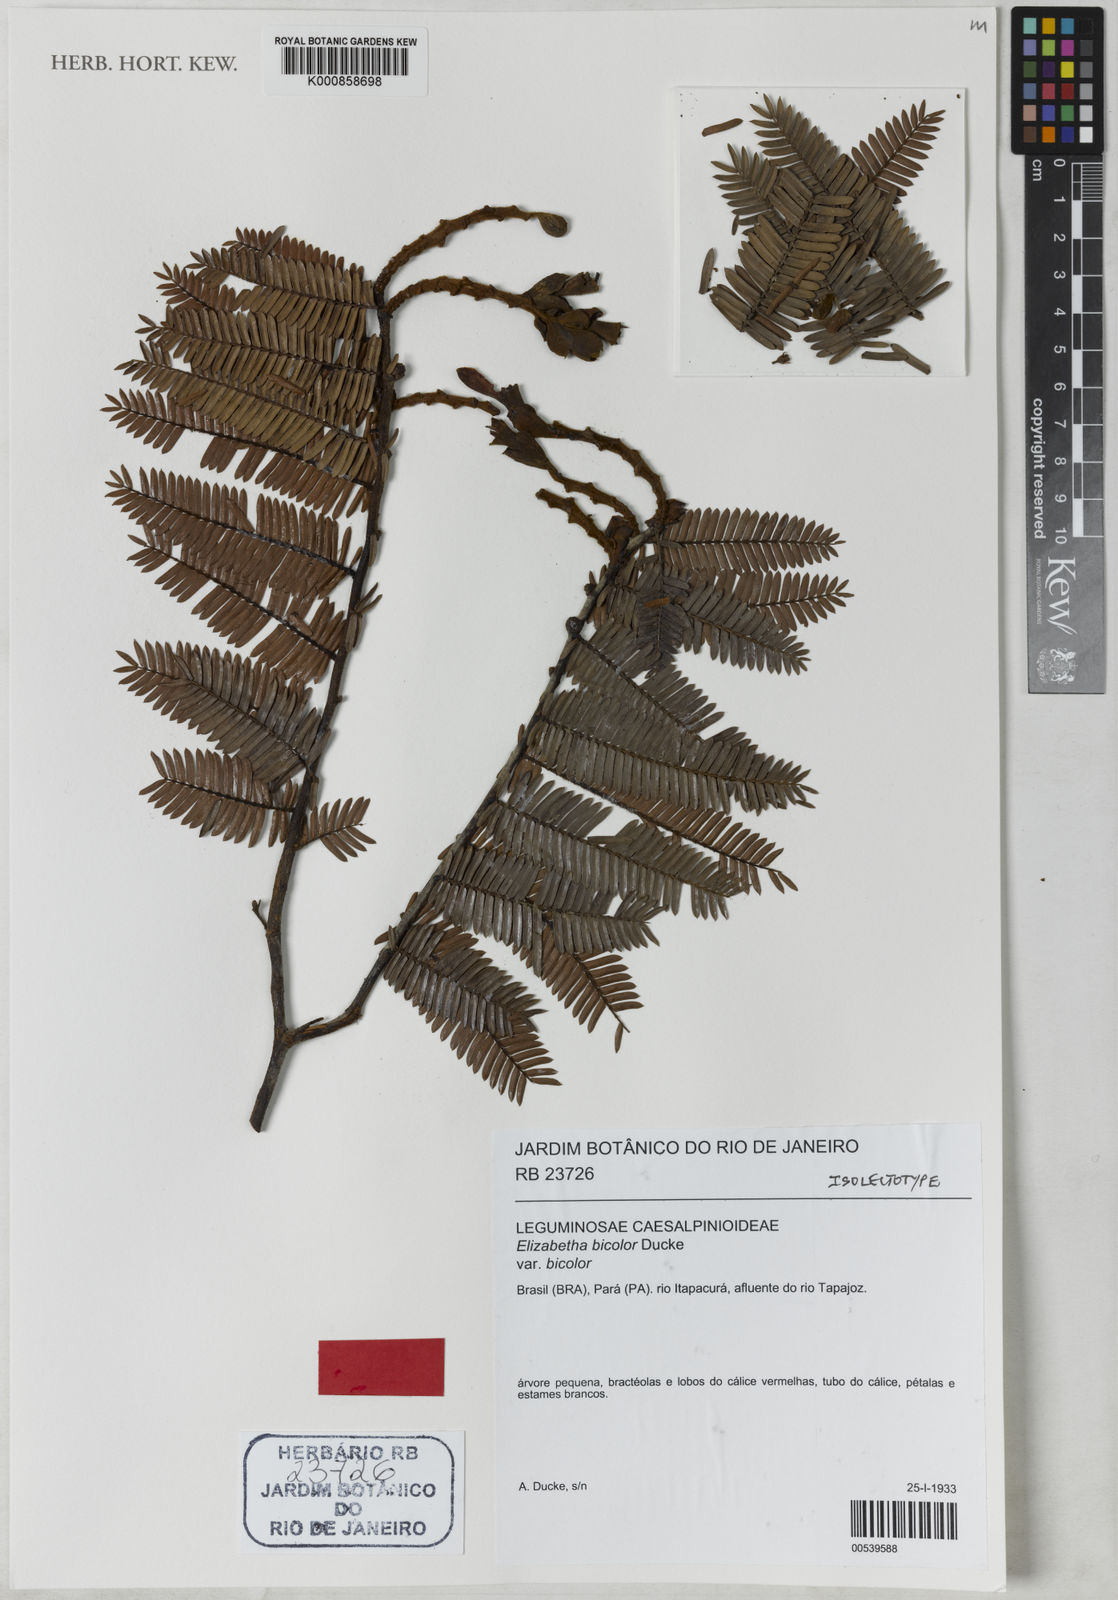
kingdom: Plantae
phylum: Tracheophyta
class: Magnoliopsida
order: Fabales
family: Fabaceae
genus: Paloue
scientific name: Paloue bicolor
